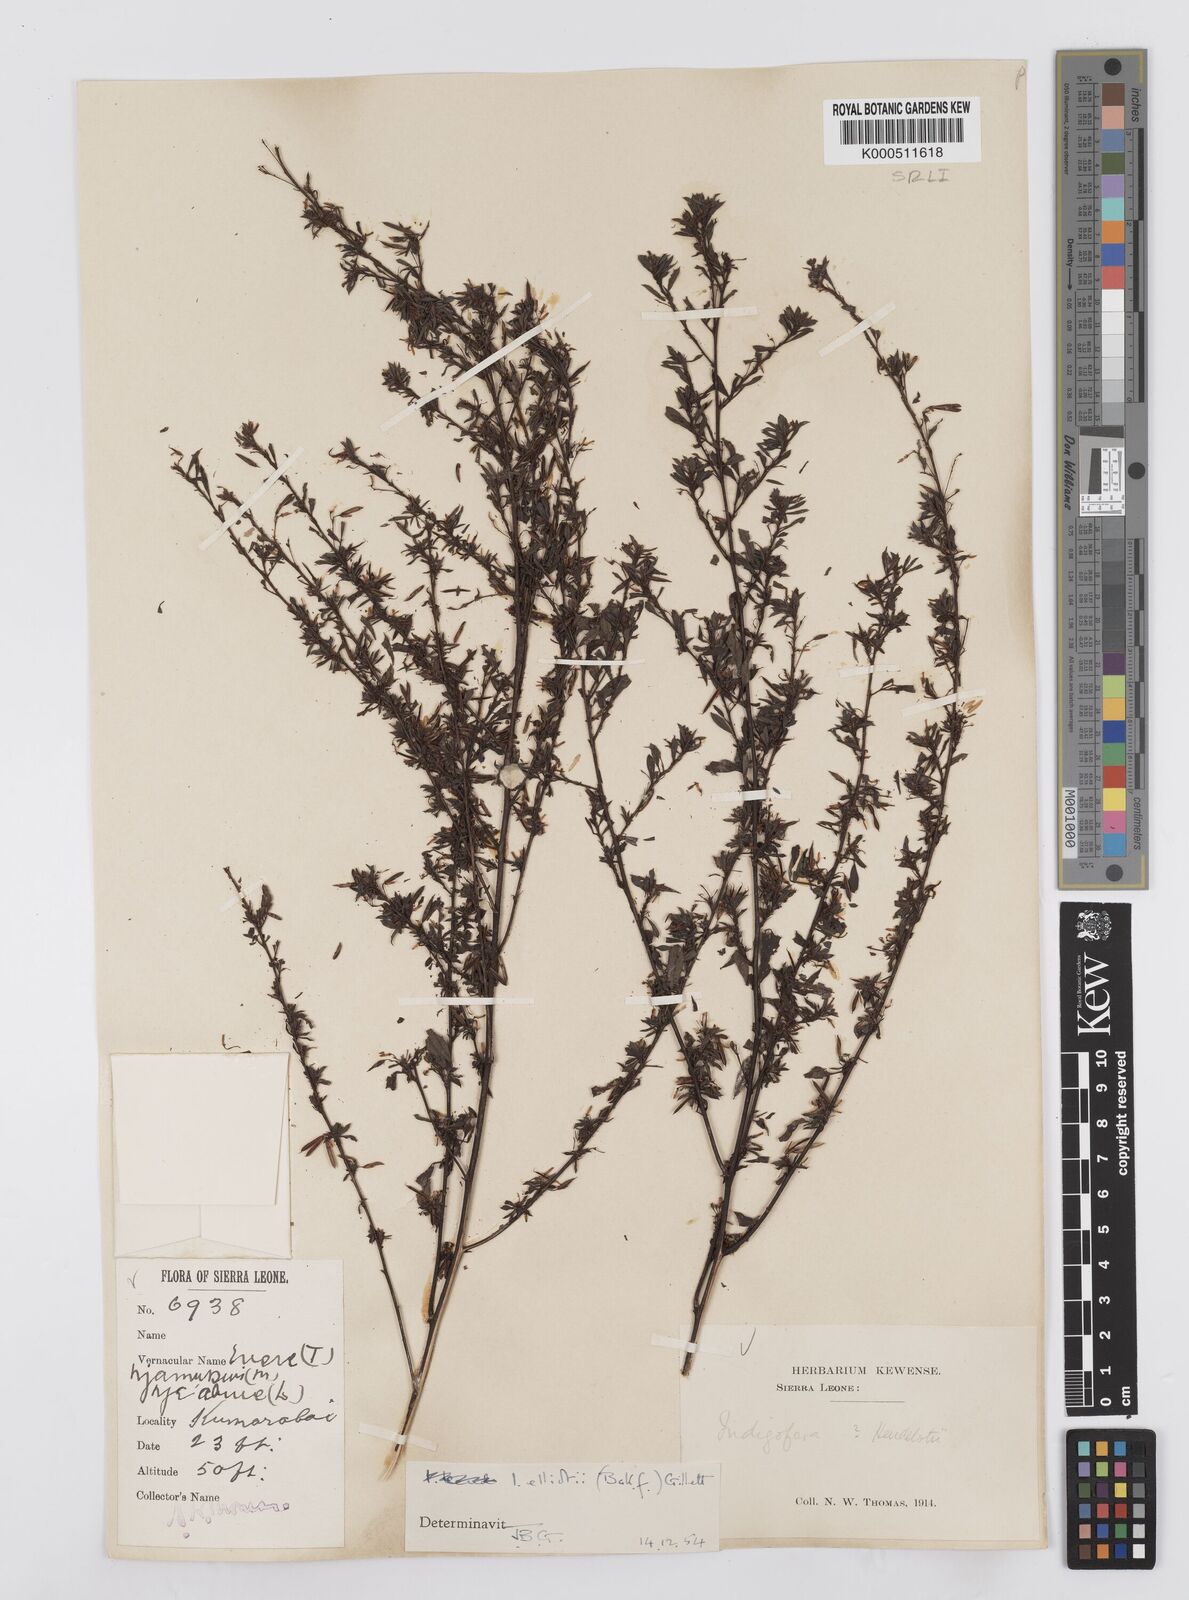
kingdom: Plantae
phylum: Tracheophyta
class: Magnoliopsida
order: Fabales
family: Fabaceae
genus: Indigofera
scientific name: Indigofera elliotii
